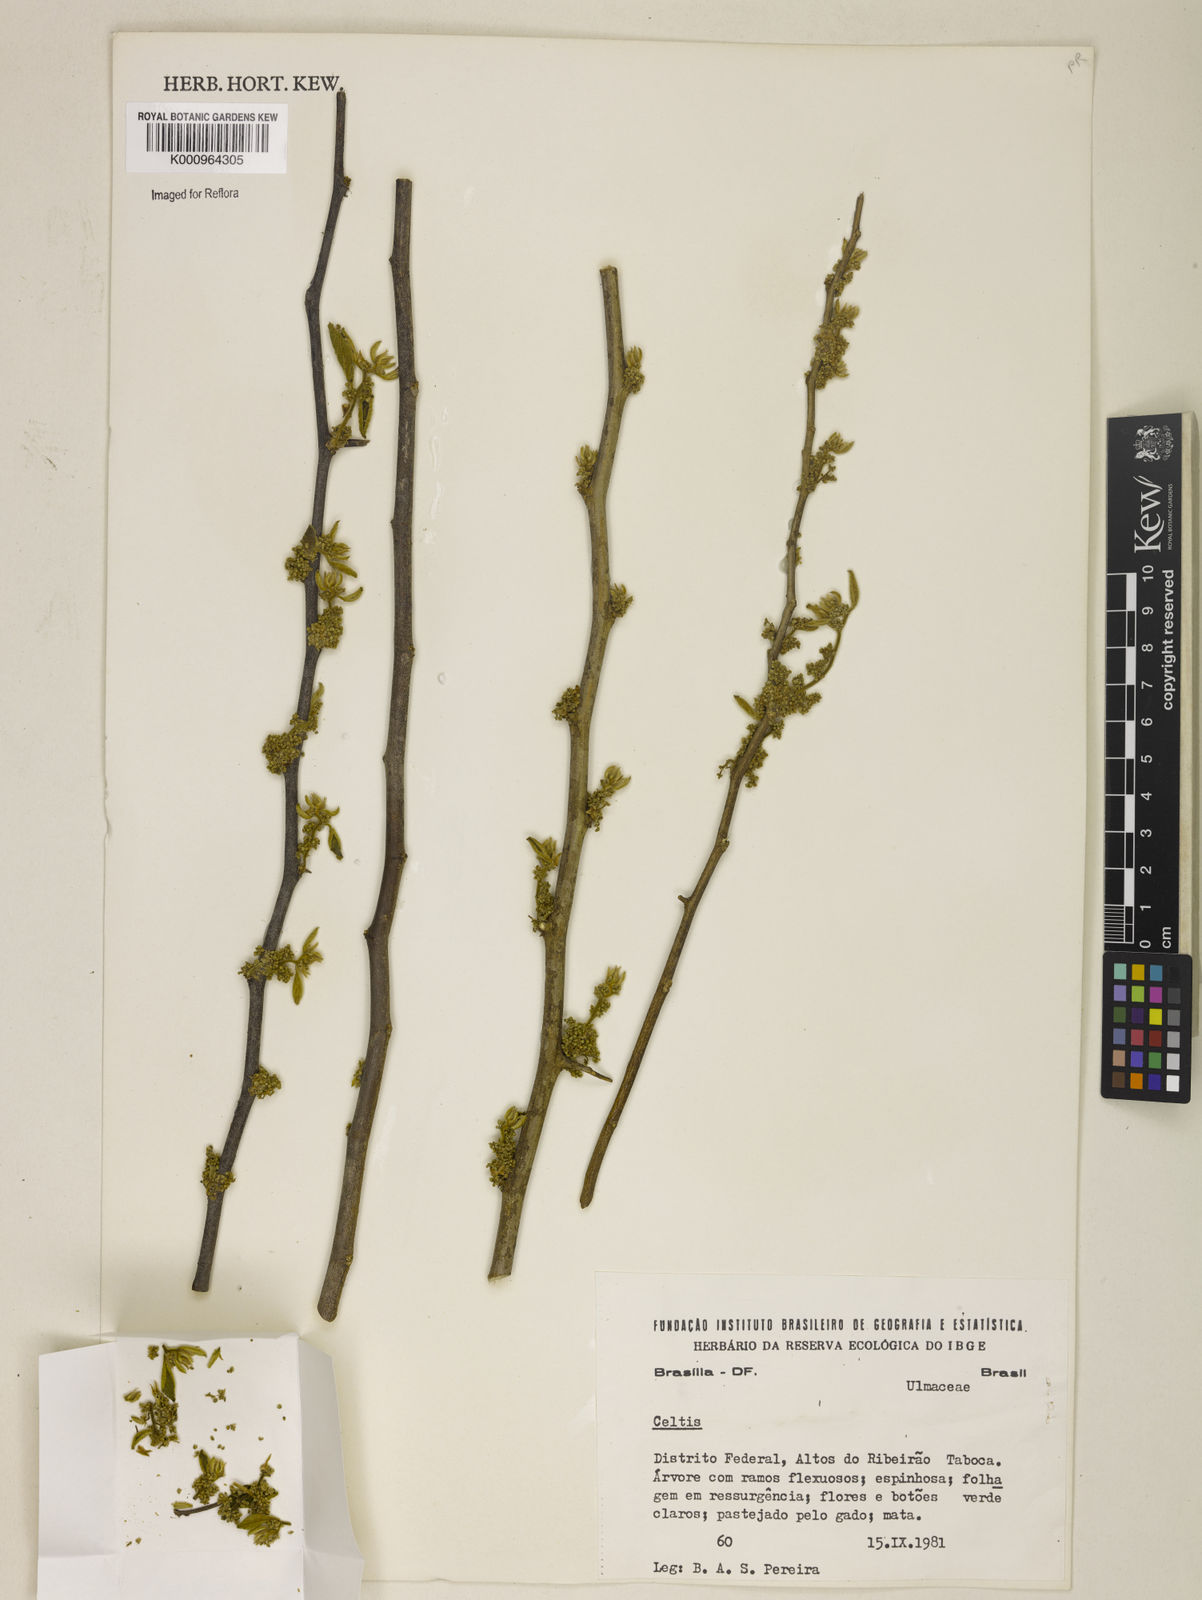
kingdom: Plantae
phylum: Tracheophyta
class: Magnoliopsida
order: Rosales
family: Cannabaceae
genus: Celtis
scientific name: Celtis
